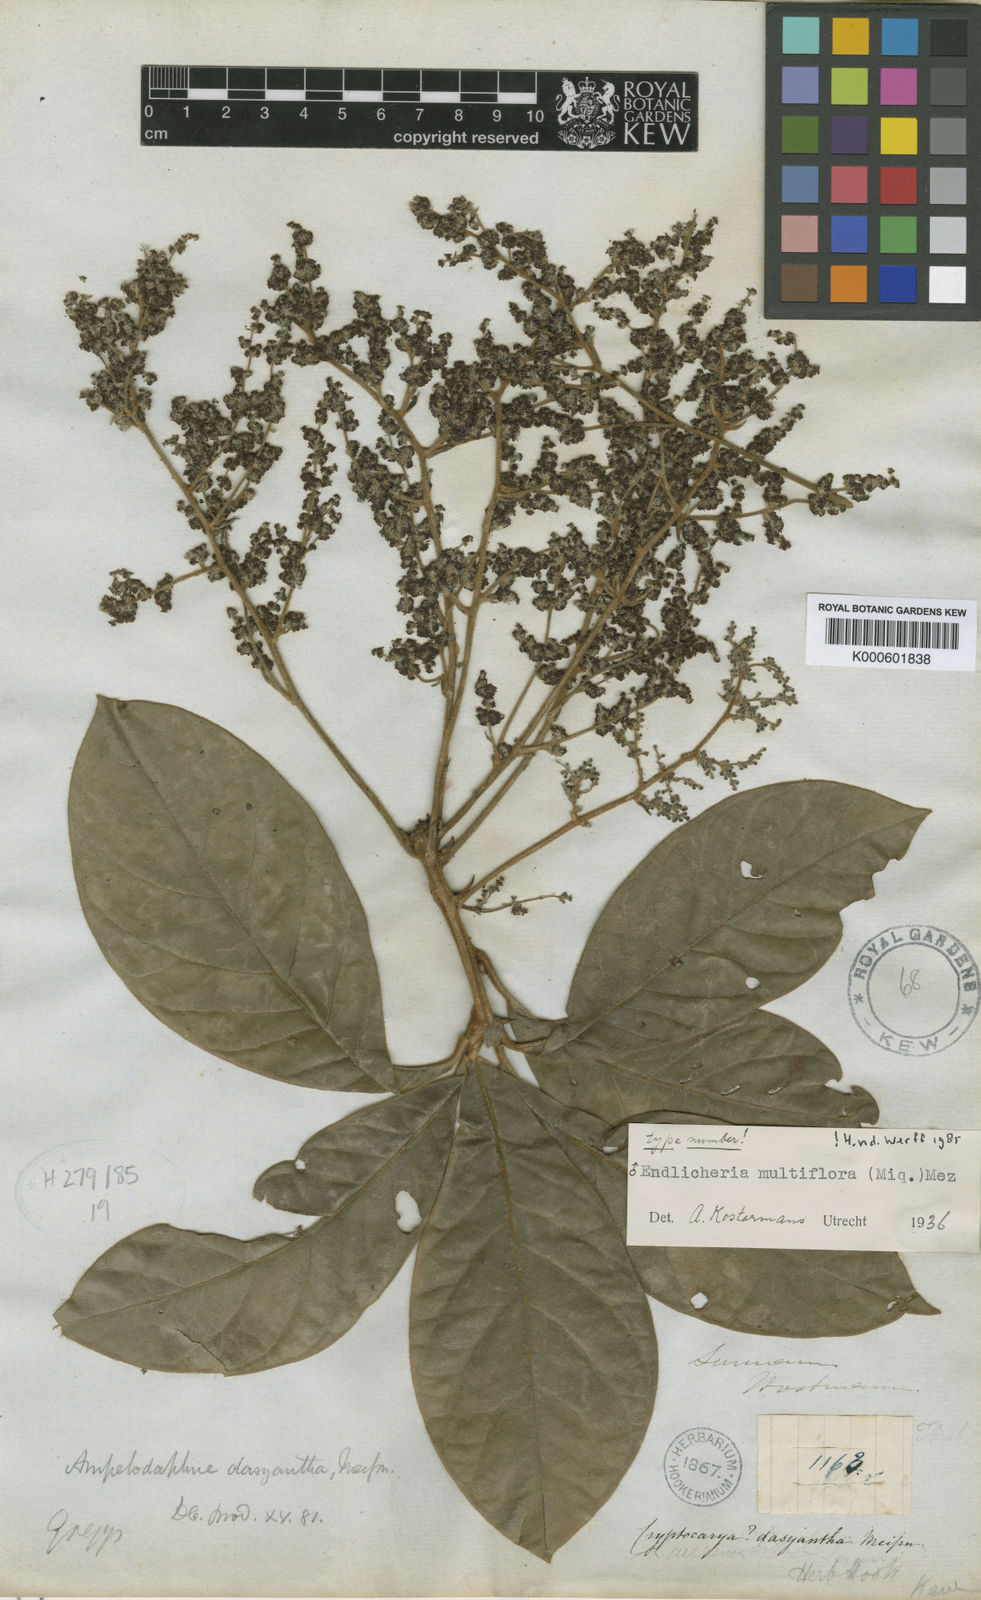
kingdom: Plantae
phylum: Tracheophyta
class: Magnoliopsida
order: Laurales
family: Lauraceae
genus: Endlicheria
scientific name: Endlicheria multiflora
